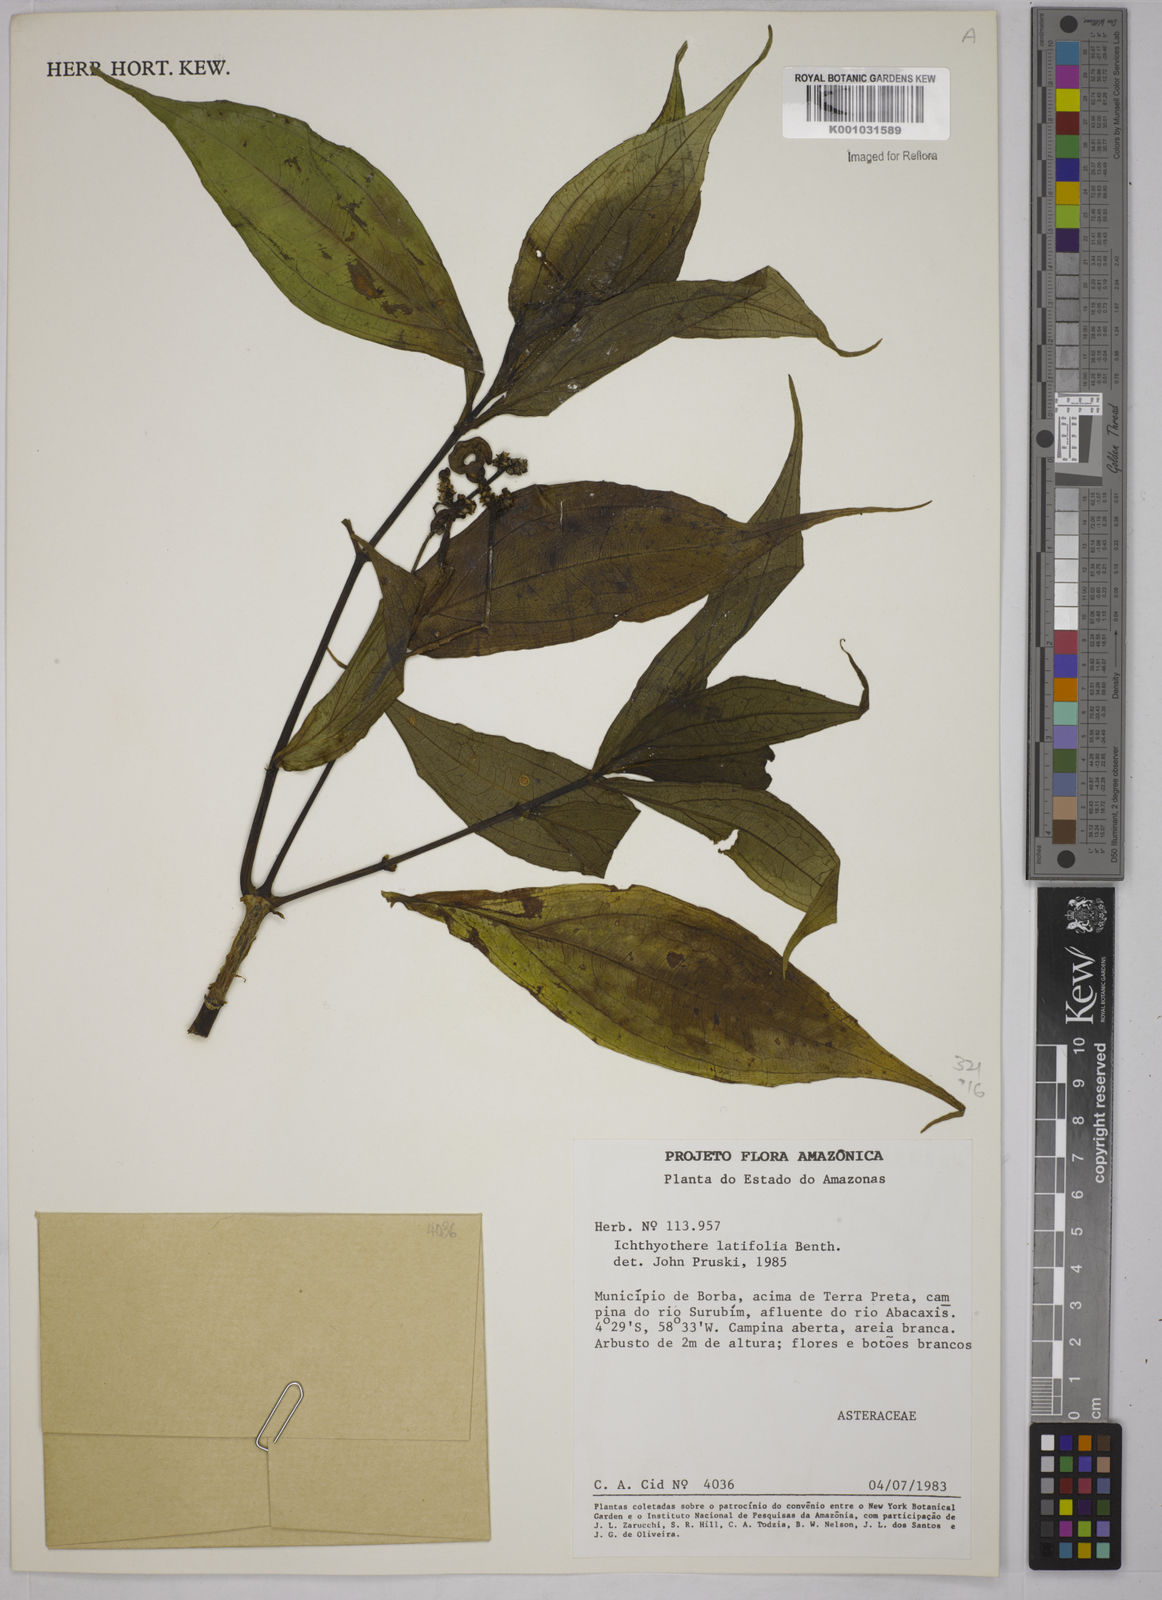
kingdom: Plantae
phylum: Tracheophyta
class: Magnoliopsida
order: Asterales
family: Asteraceae
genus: Ichthyothere
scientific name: Ichthyothere latifolia
